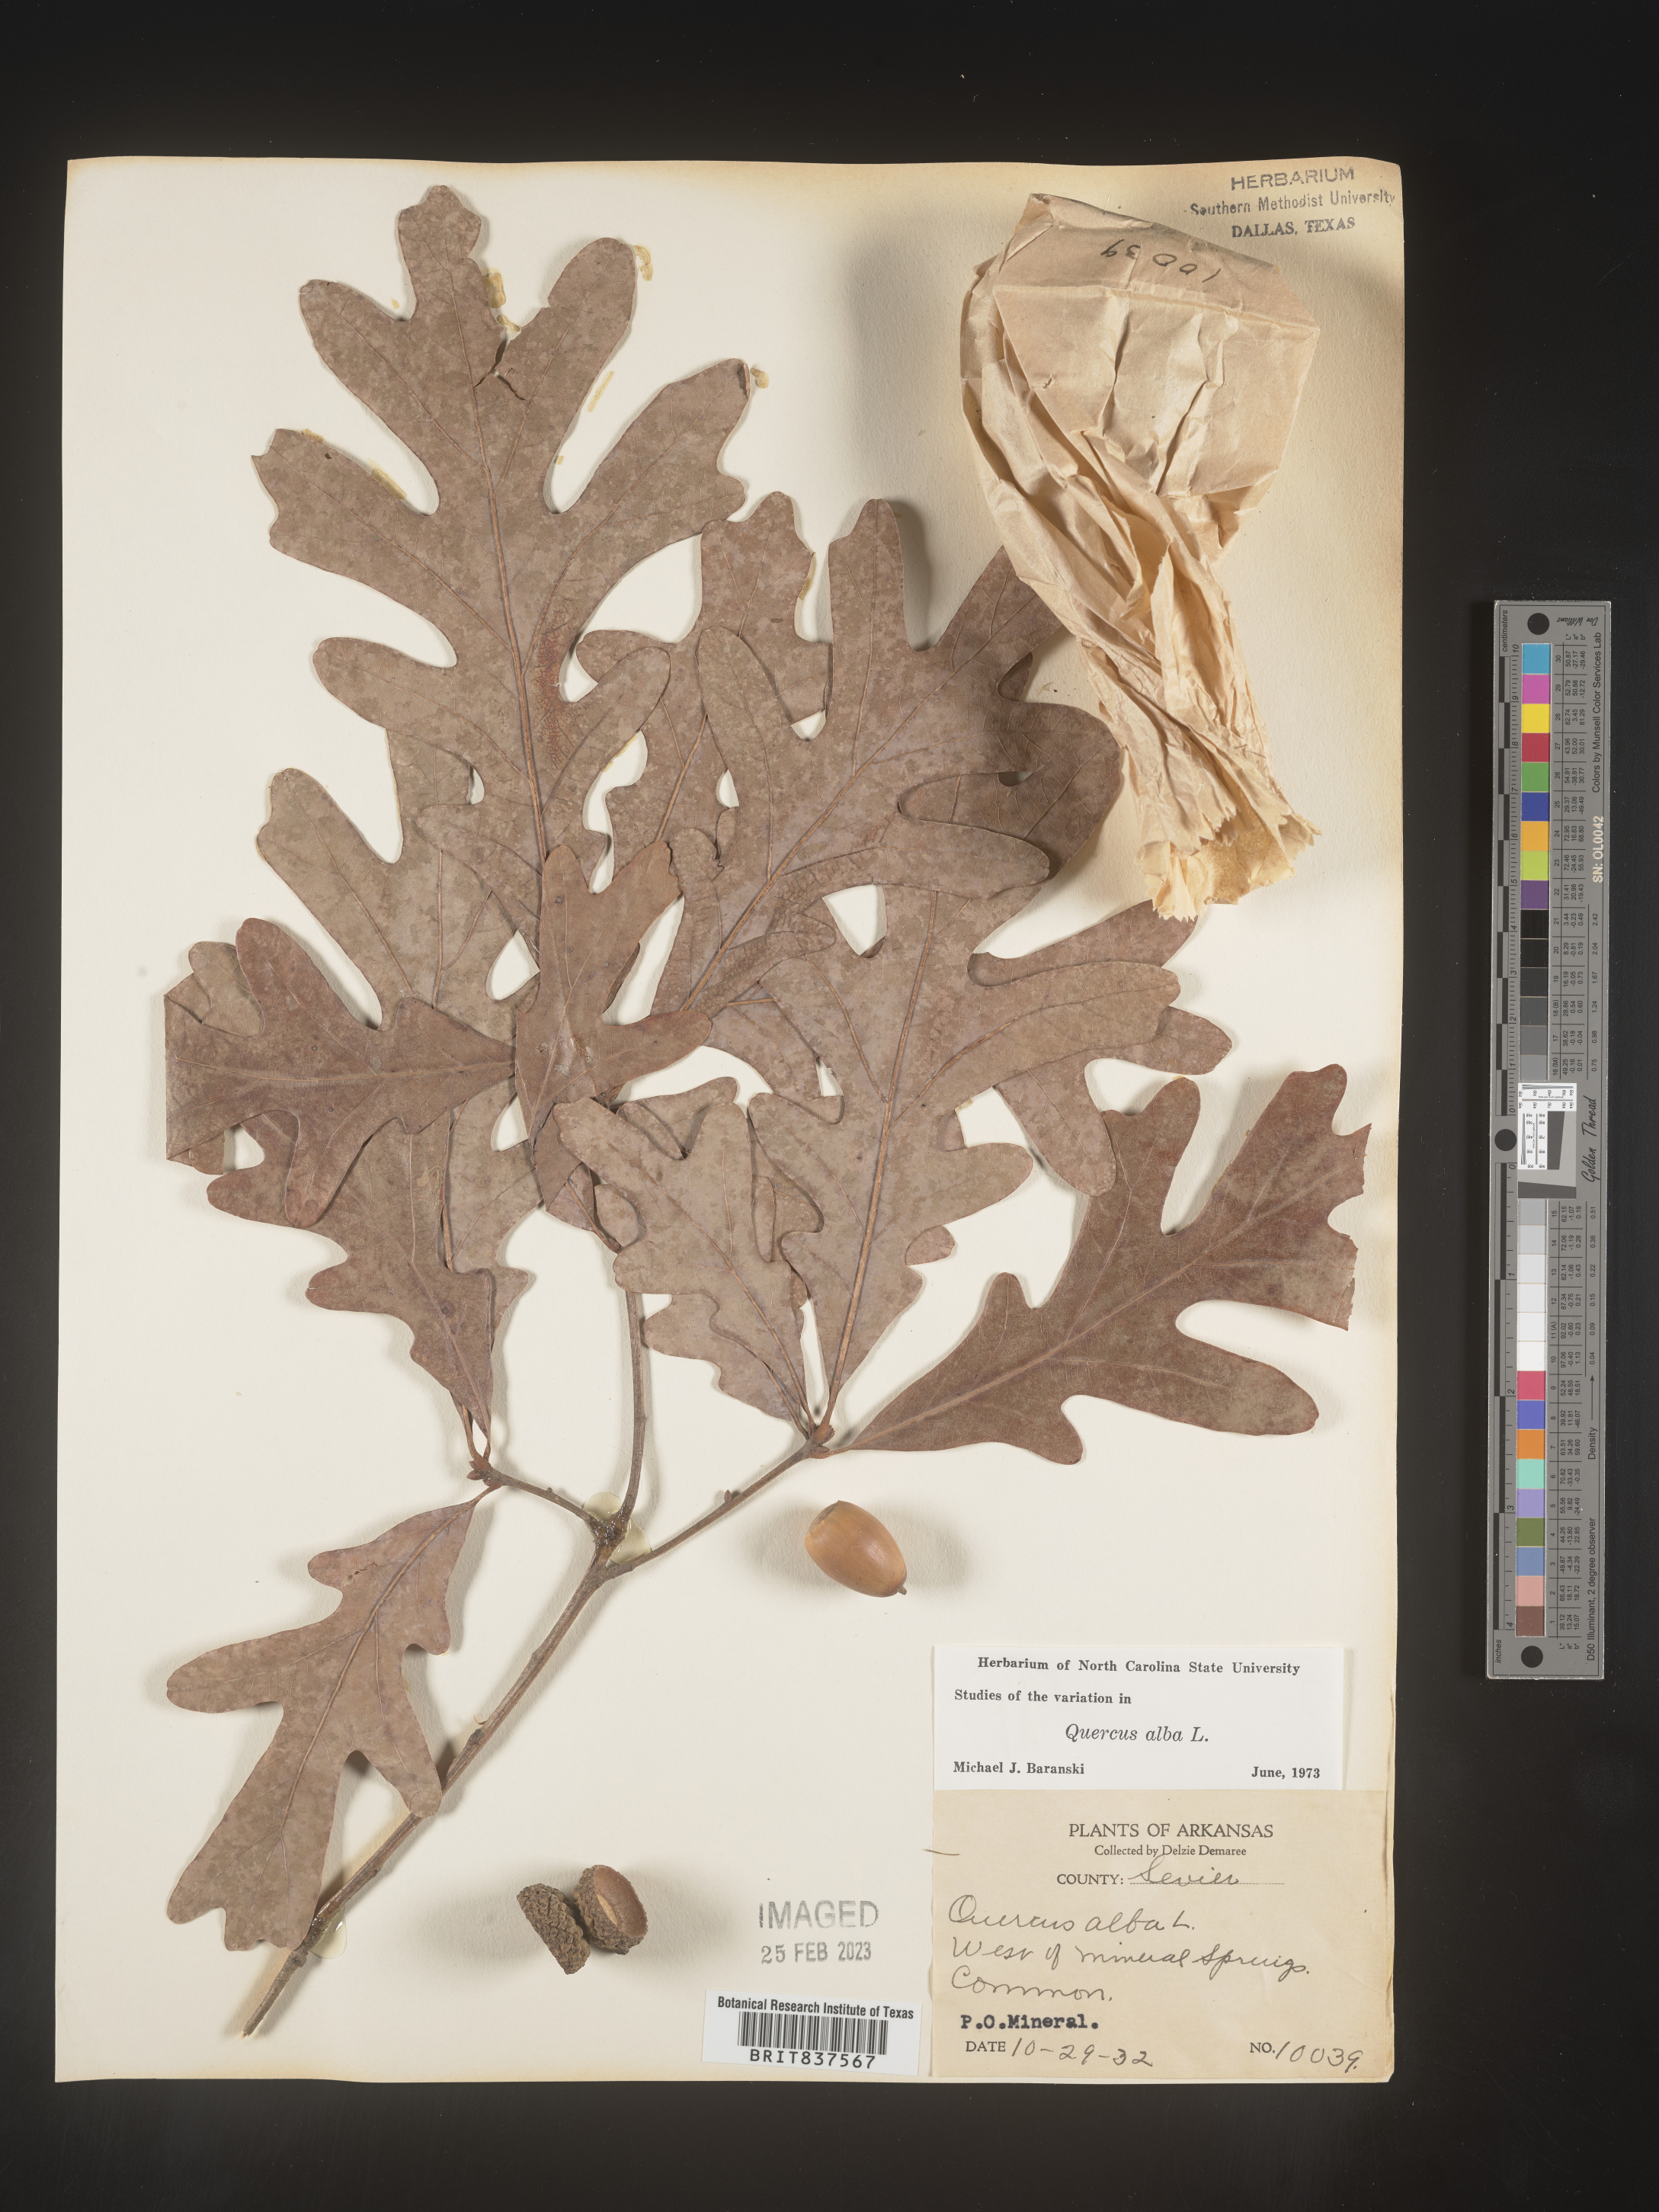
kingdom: Plantae
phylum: Tracheophyta
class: Magnoliopsida
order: Fagales
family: Fagaceae
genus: Quercus
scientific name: Quercus alba
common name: White oak
